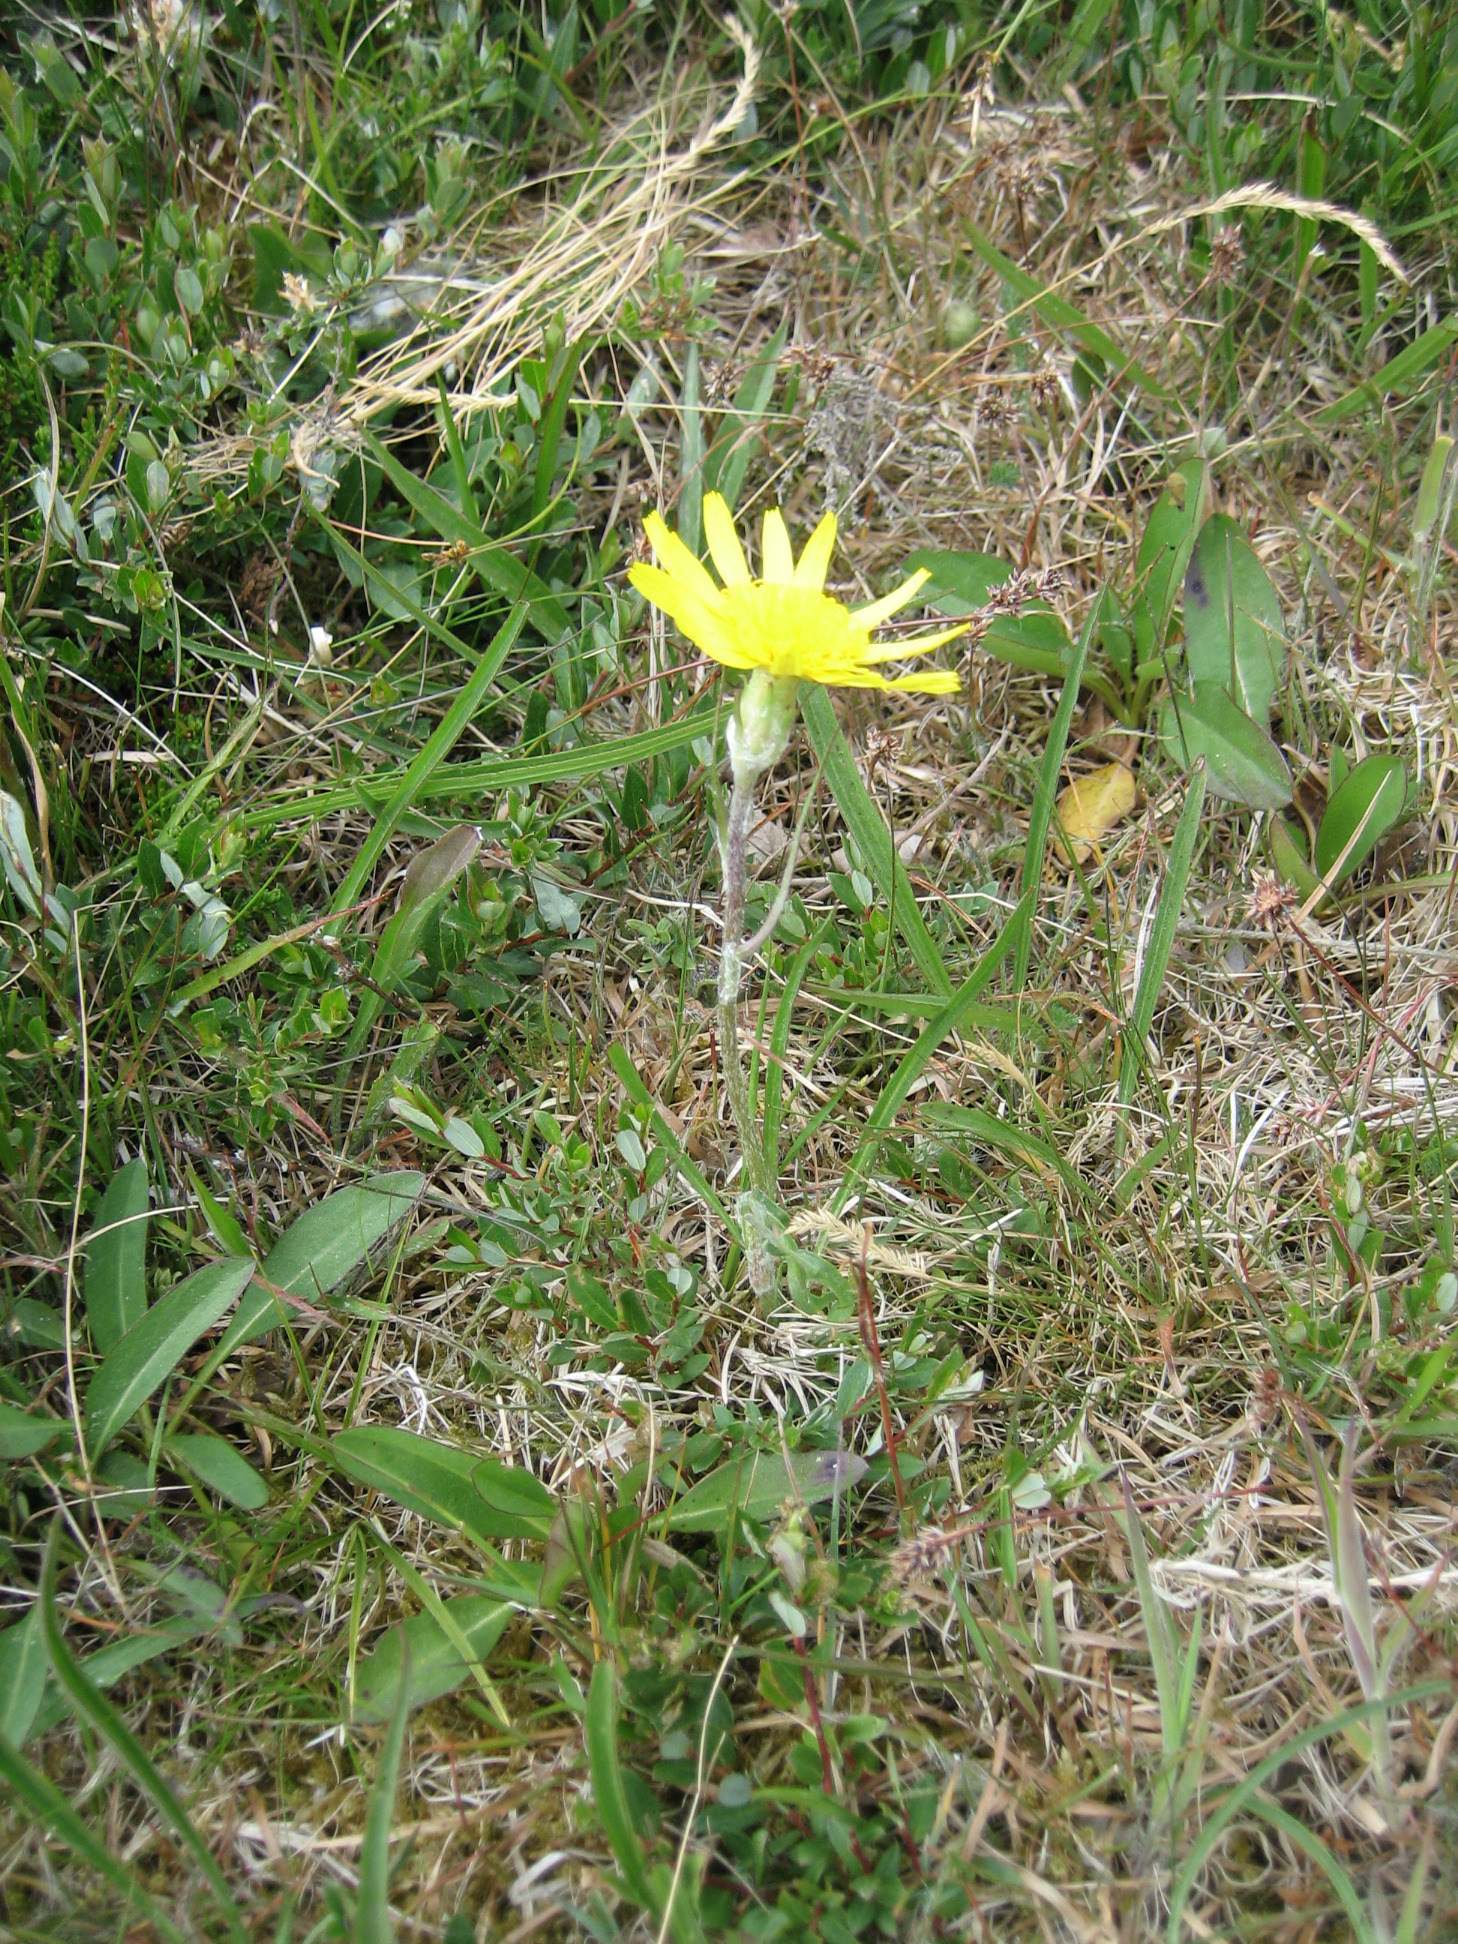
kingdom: Plantae
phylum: Tracheophyta
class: Magnoliopsida
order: Asterales
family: Asteraceae
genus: Scorzonera
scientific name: Scorzonera humilis
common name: Lav skorsoner
